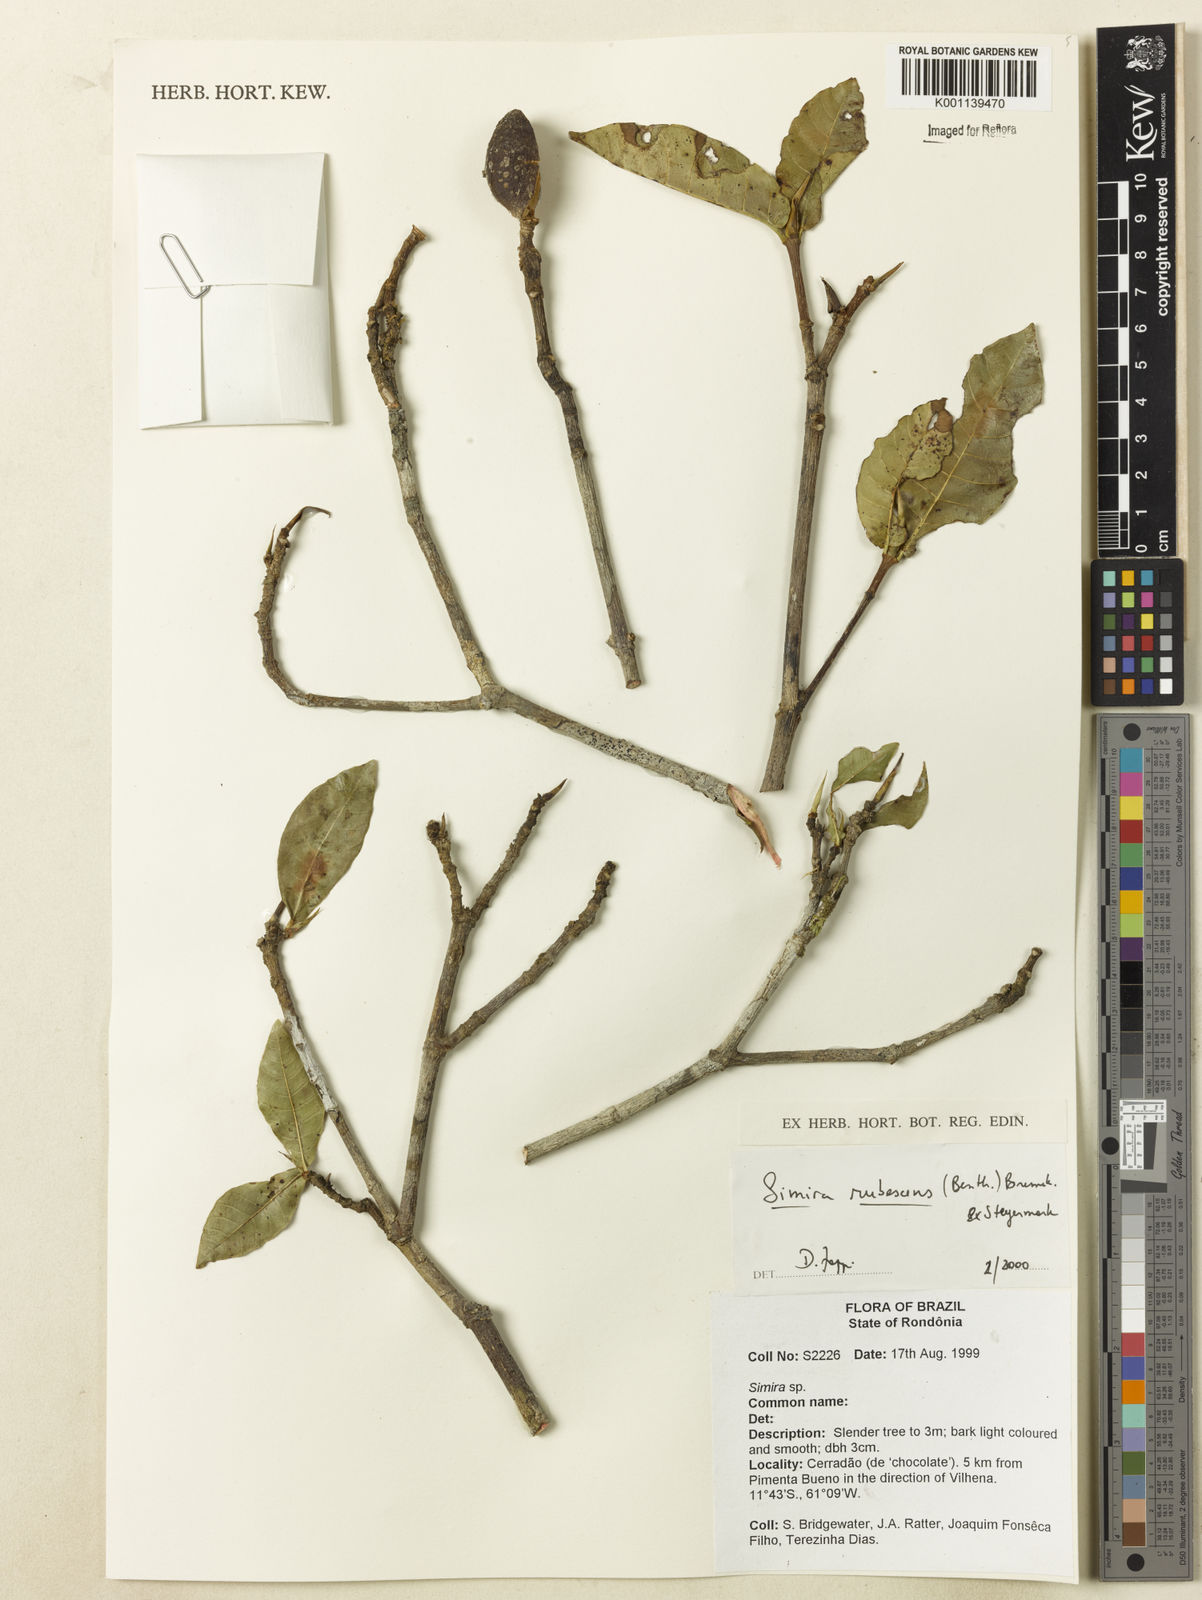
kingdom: Plantae
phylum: Tracheophyta
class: Magnoliopsida
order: Gentianales
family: Rubiaceae
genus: Simira
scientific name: Simira rubescens
